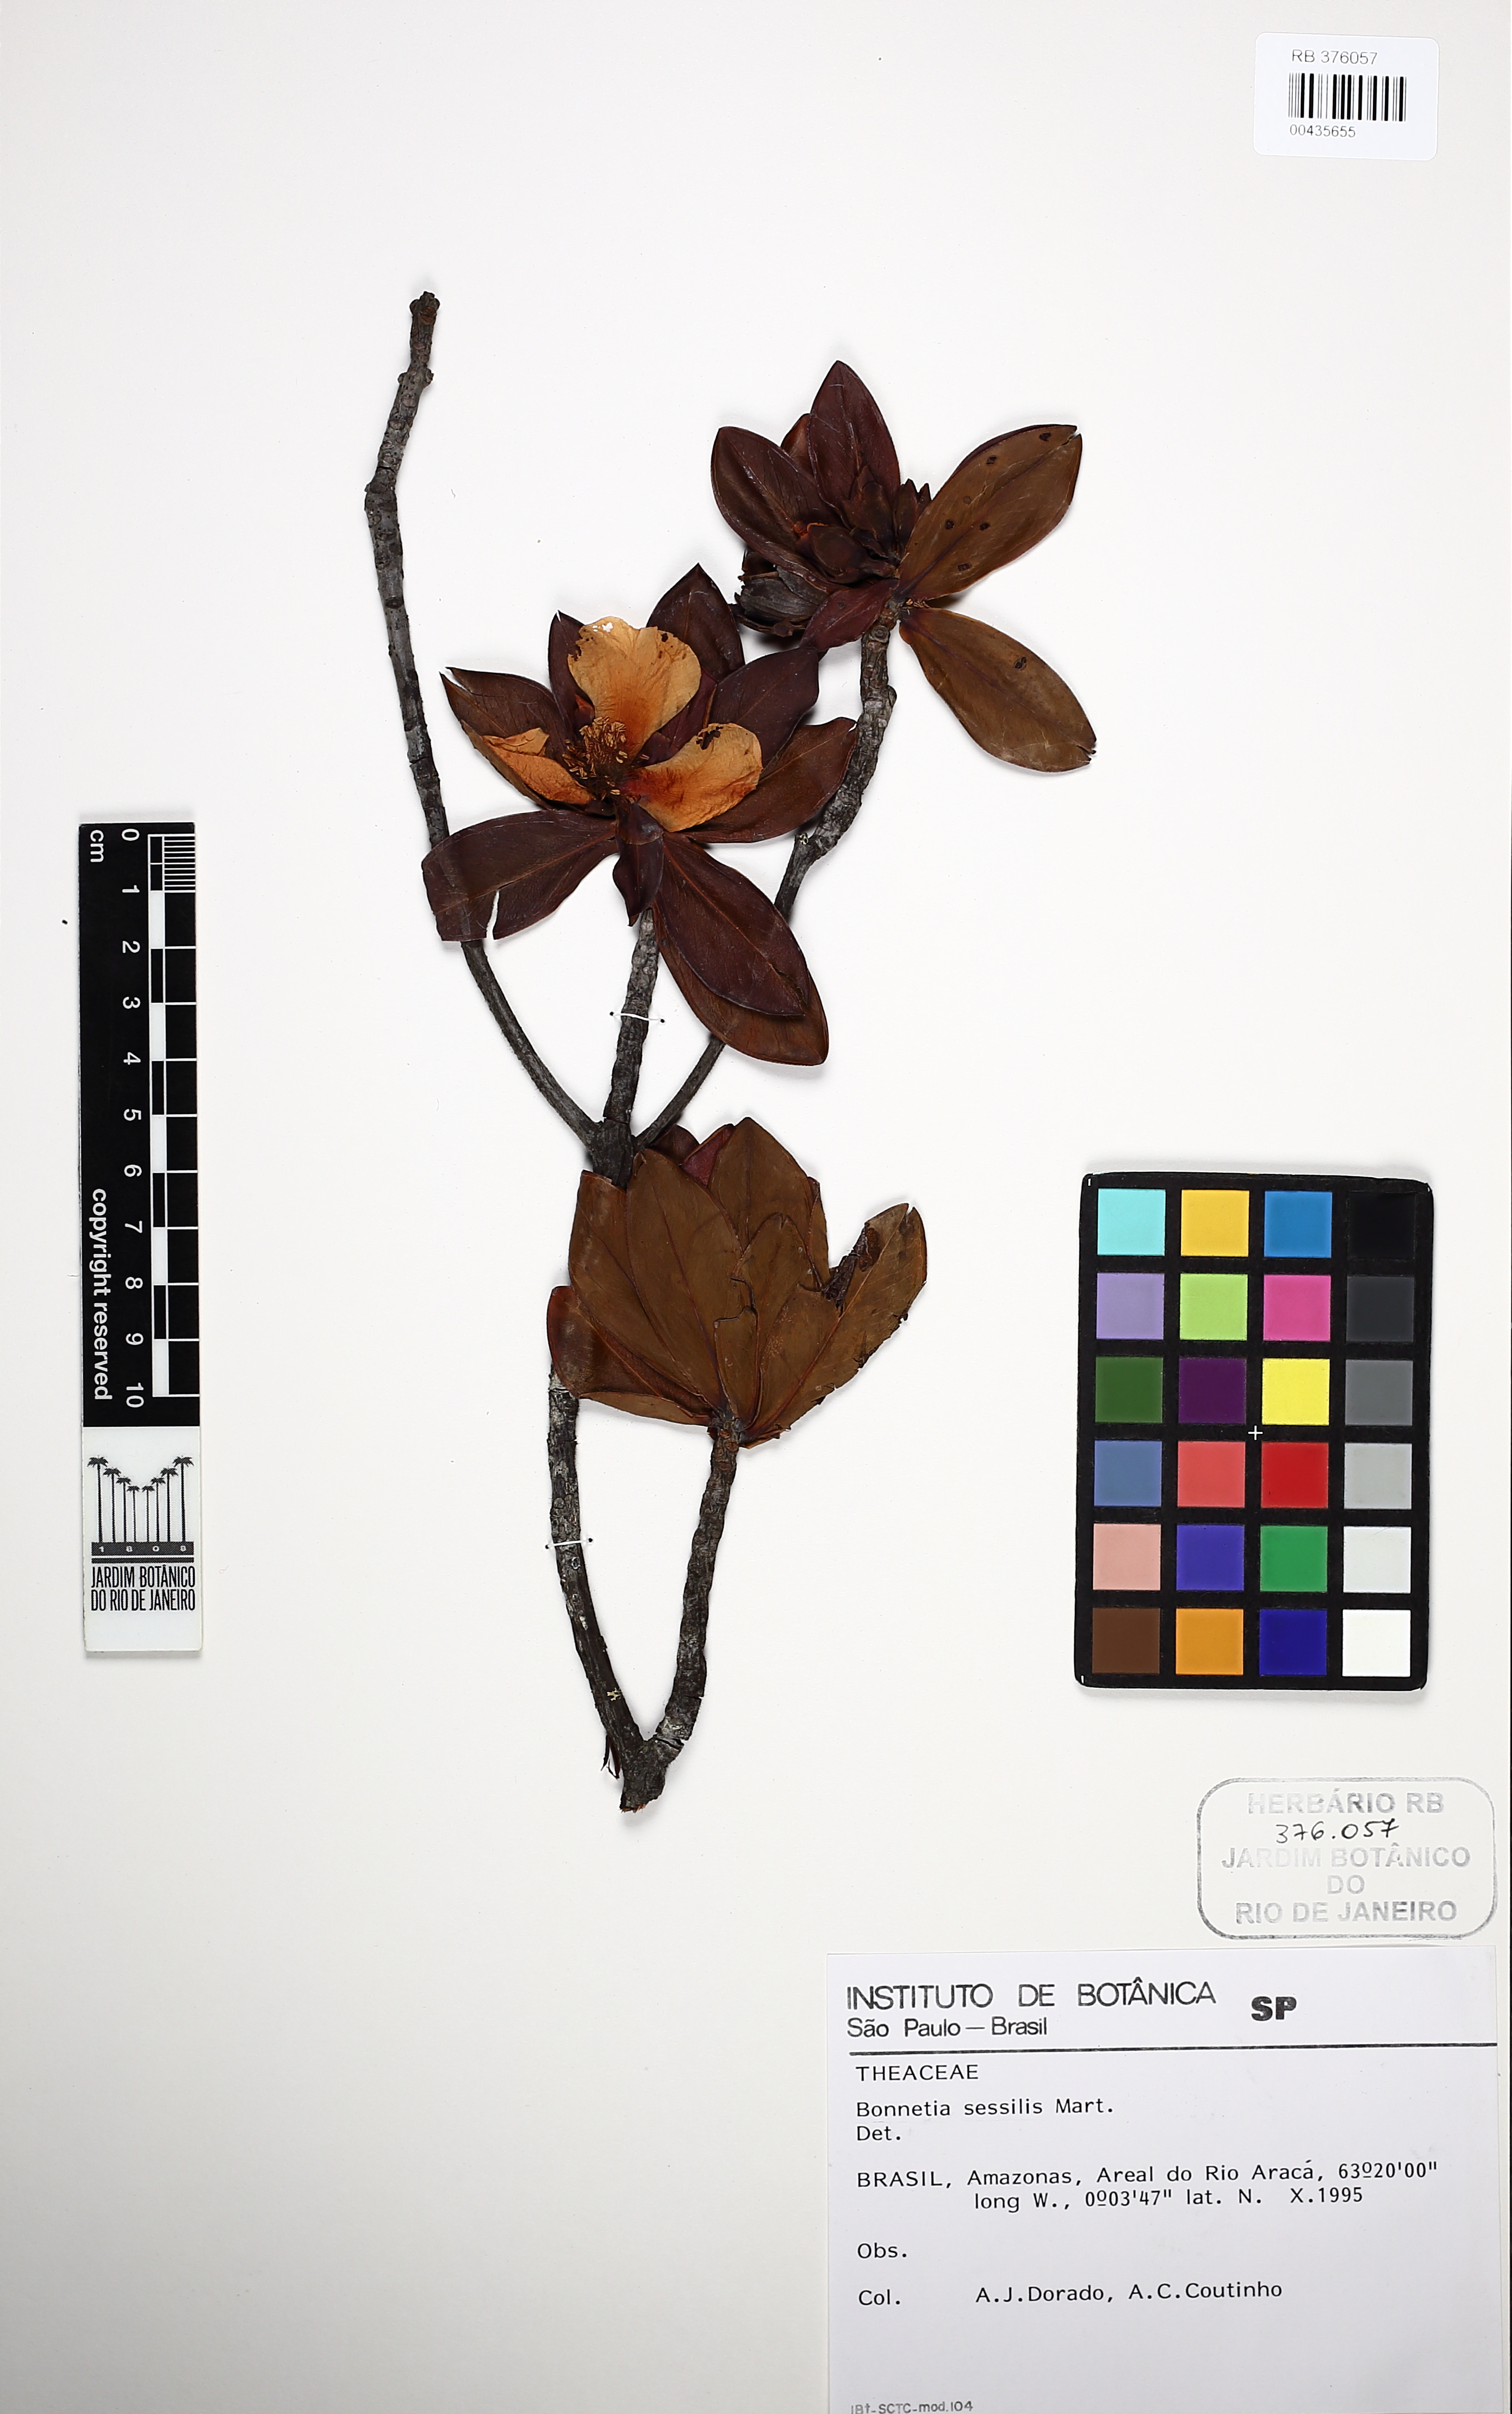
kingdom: Plantae
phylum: Tracheophyta
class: Magnoliopsida
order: Malpighiales
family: Bonnetiaceae
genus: Bonnetia
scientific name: Bonnetia sessilis
